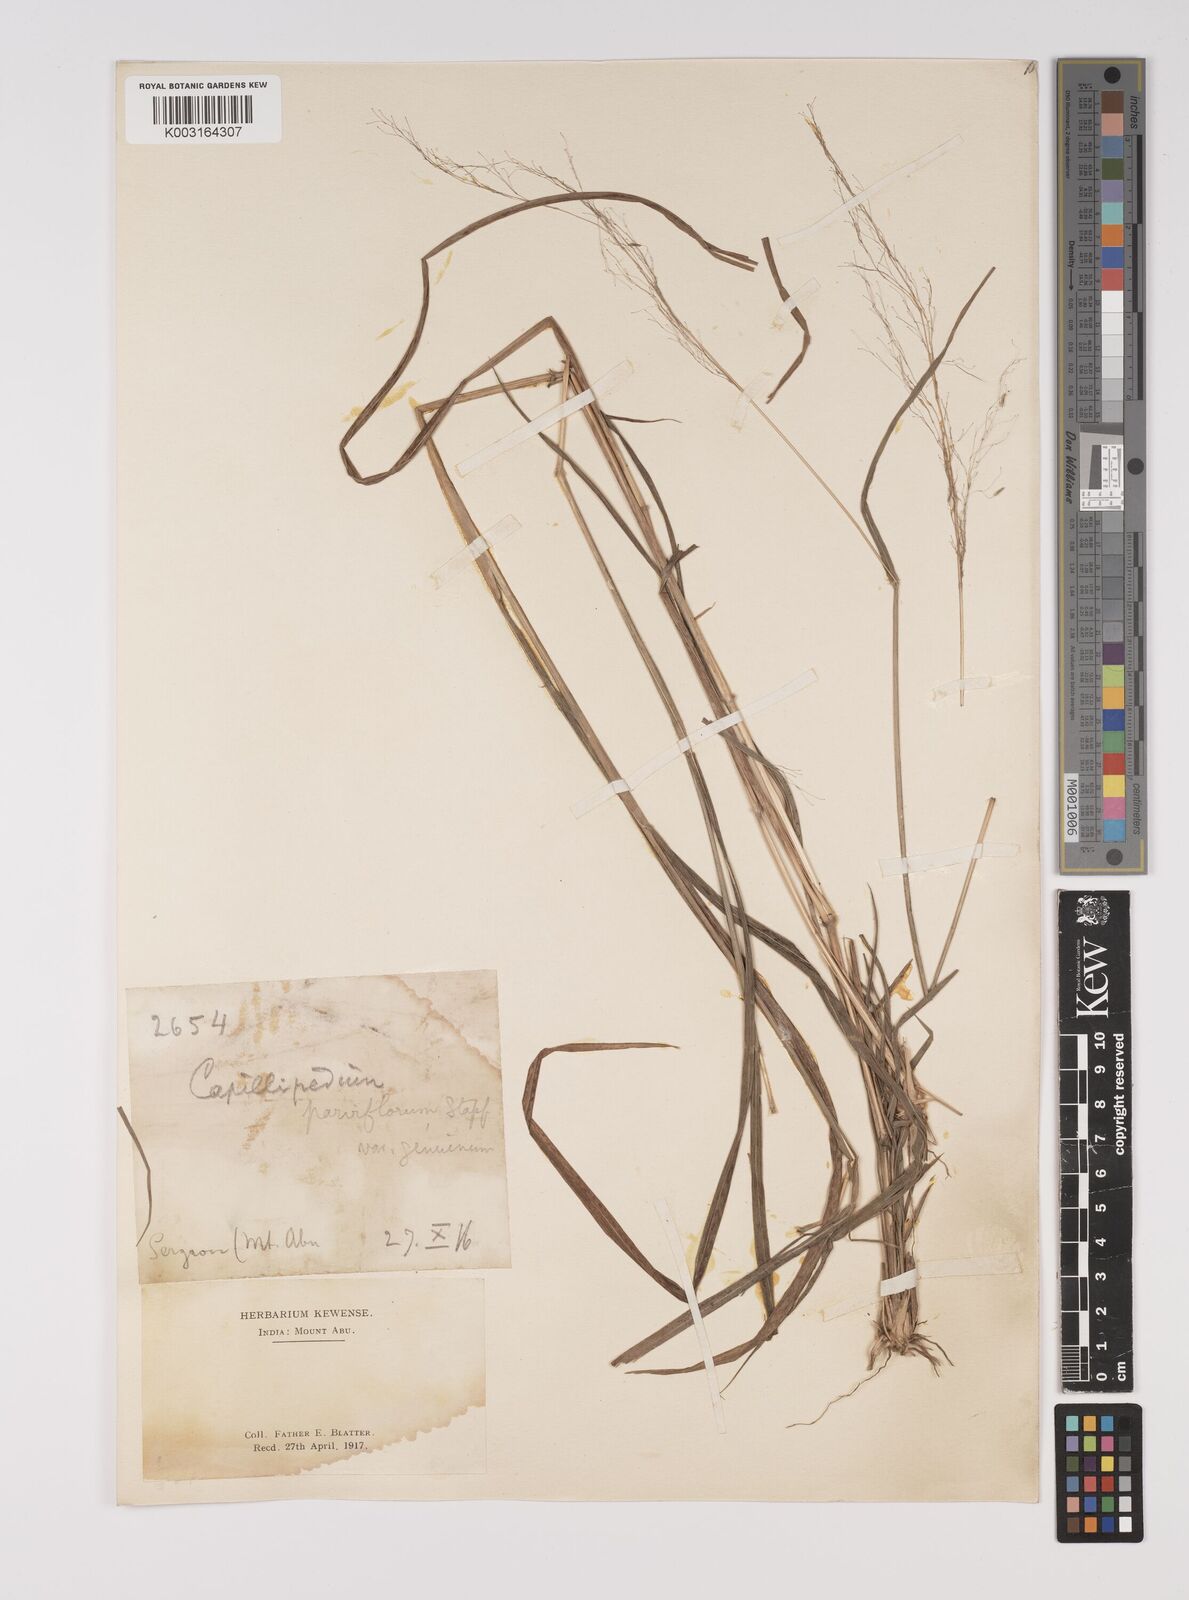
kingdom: Plantae
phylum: Tracheophyta
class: Liliopsida
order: Poales
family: Poaceae
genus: Capillipedium
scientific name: Capillipedium parviflorum
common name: Golden-beard
